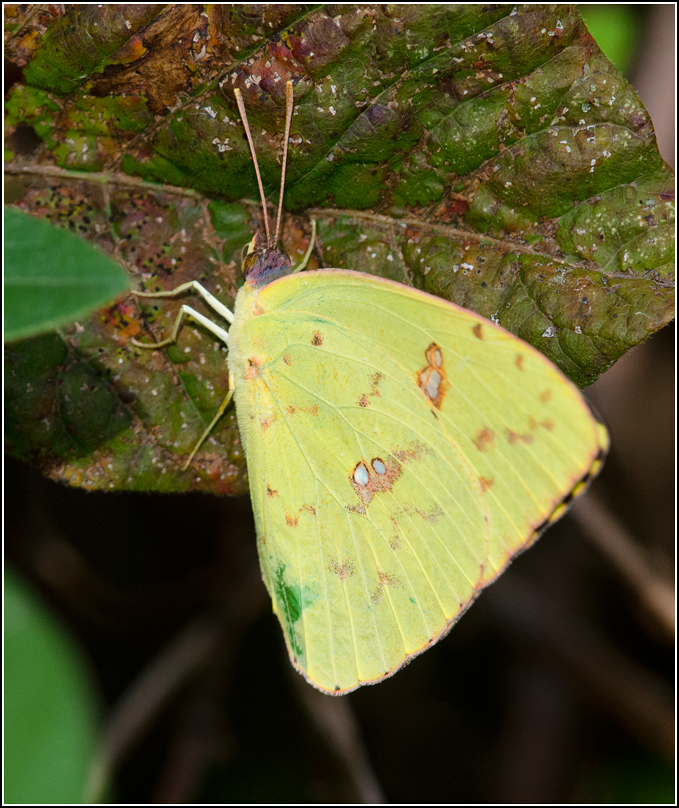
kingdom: Animalia
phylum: Arthropoda
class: Insecta
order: Lepidoptera
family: Pieridae
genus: Phoebis
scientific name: Phoebis sennae
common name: Cloudless Sulphur
